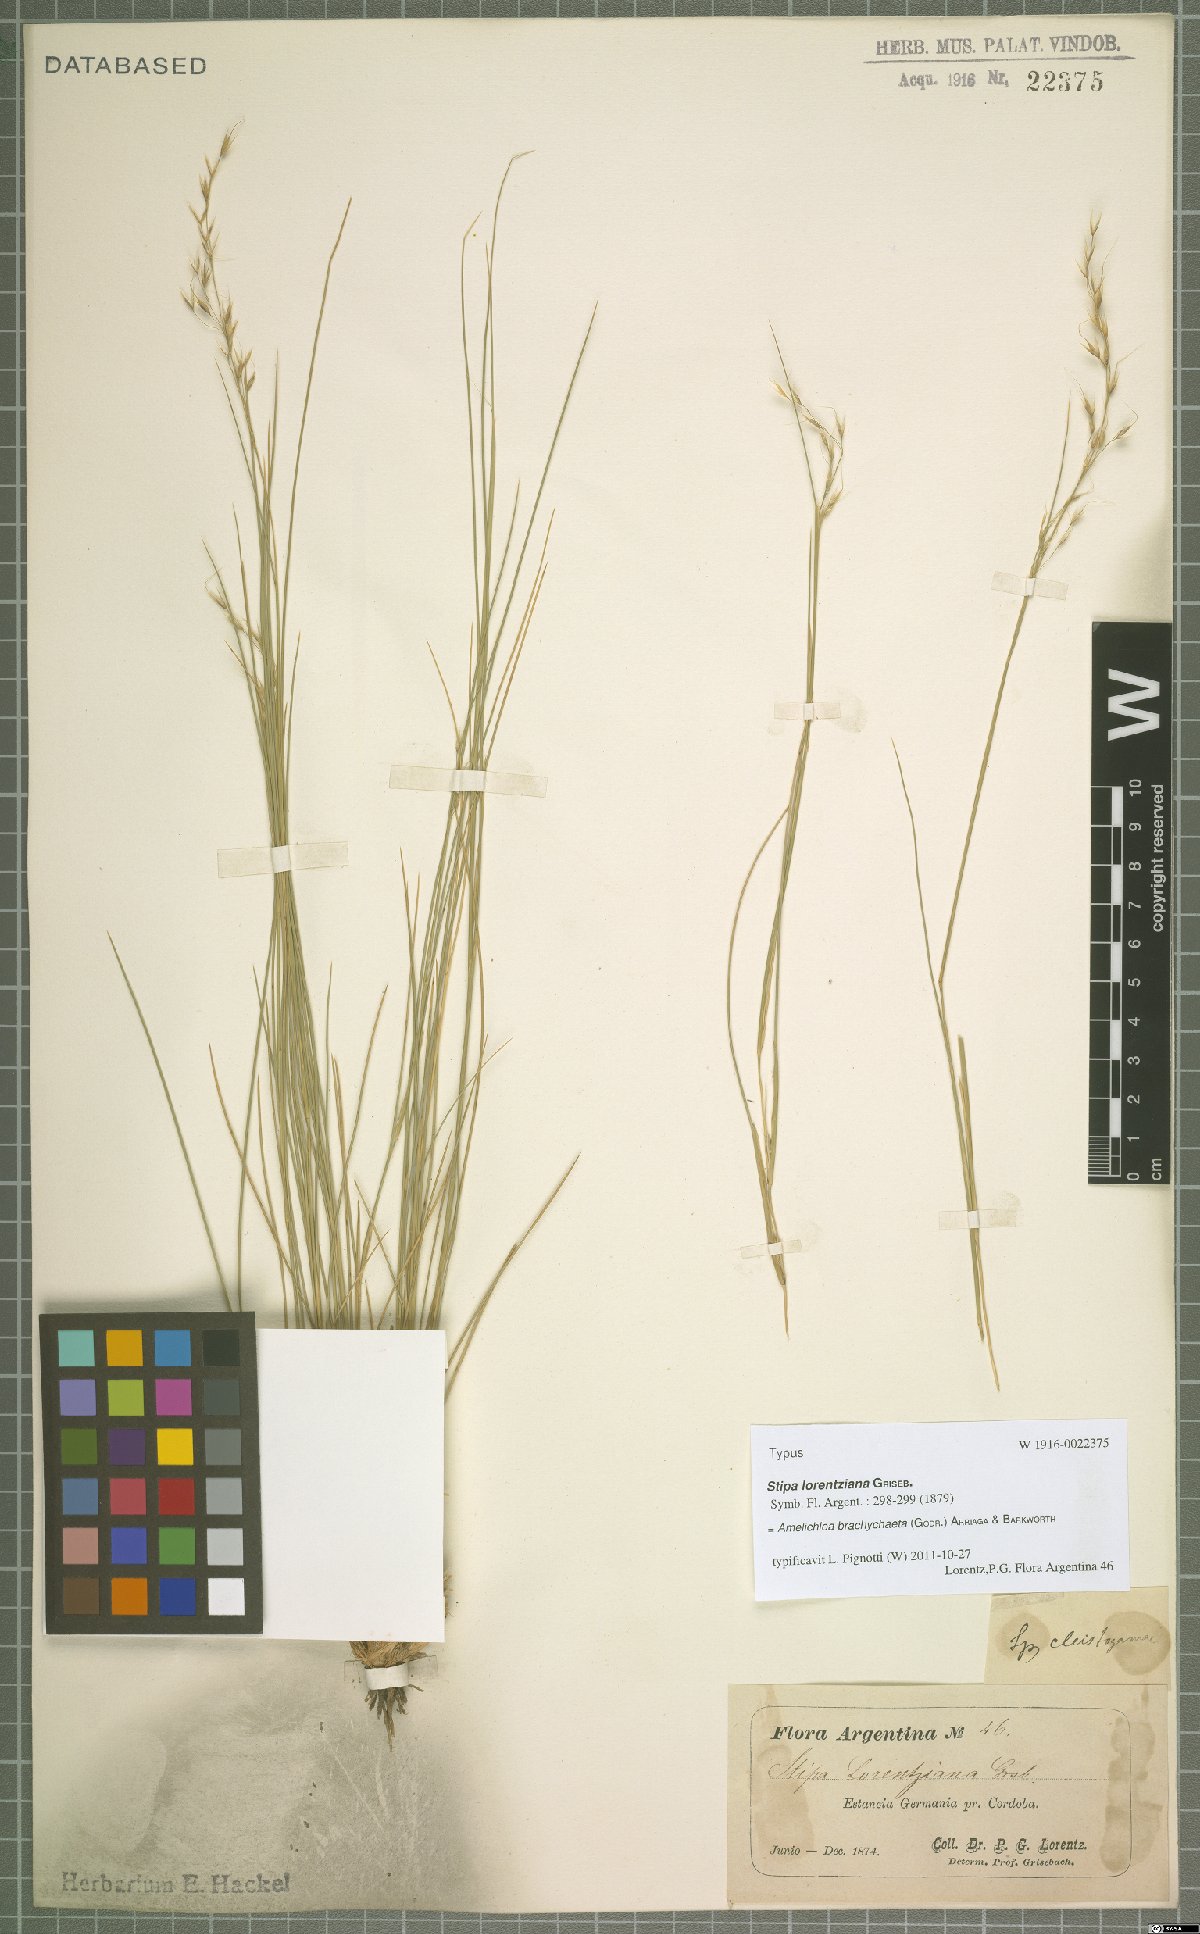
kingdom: Plantae
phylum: Tracheophyta
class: Liliopsida
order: Poales
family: Poaceae
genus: Amelichloa
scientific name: Amelichloa brachychaeta
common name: Shortbristled needlegrass
